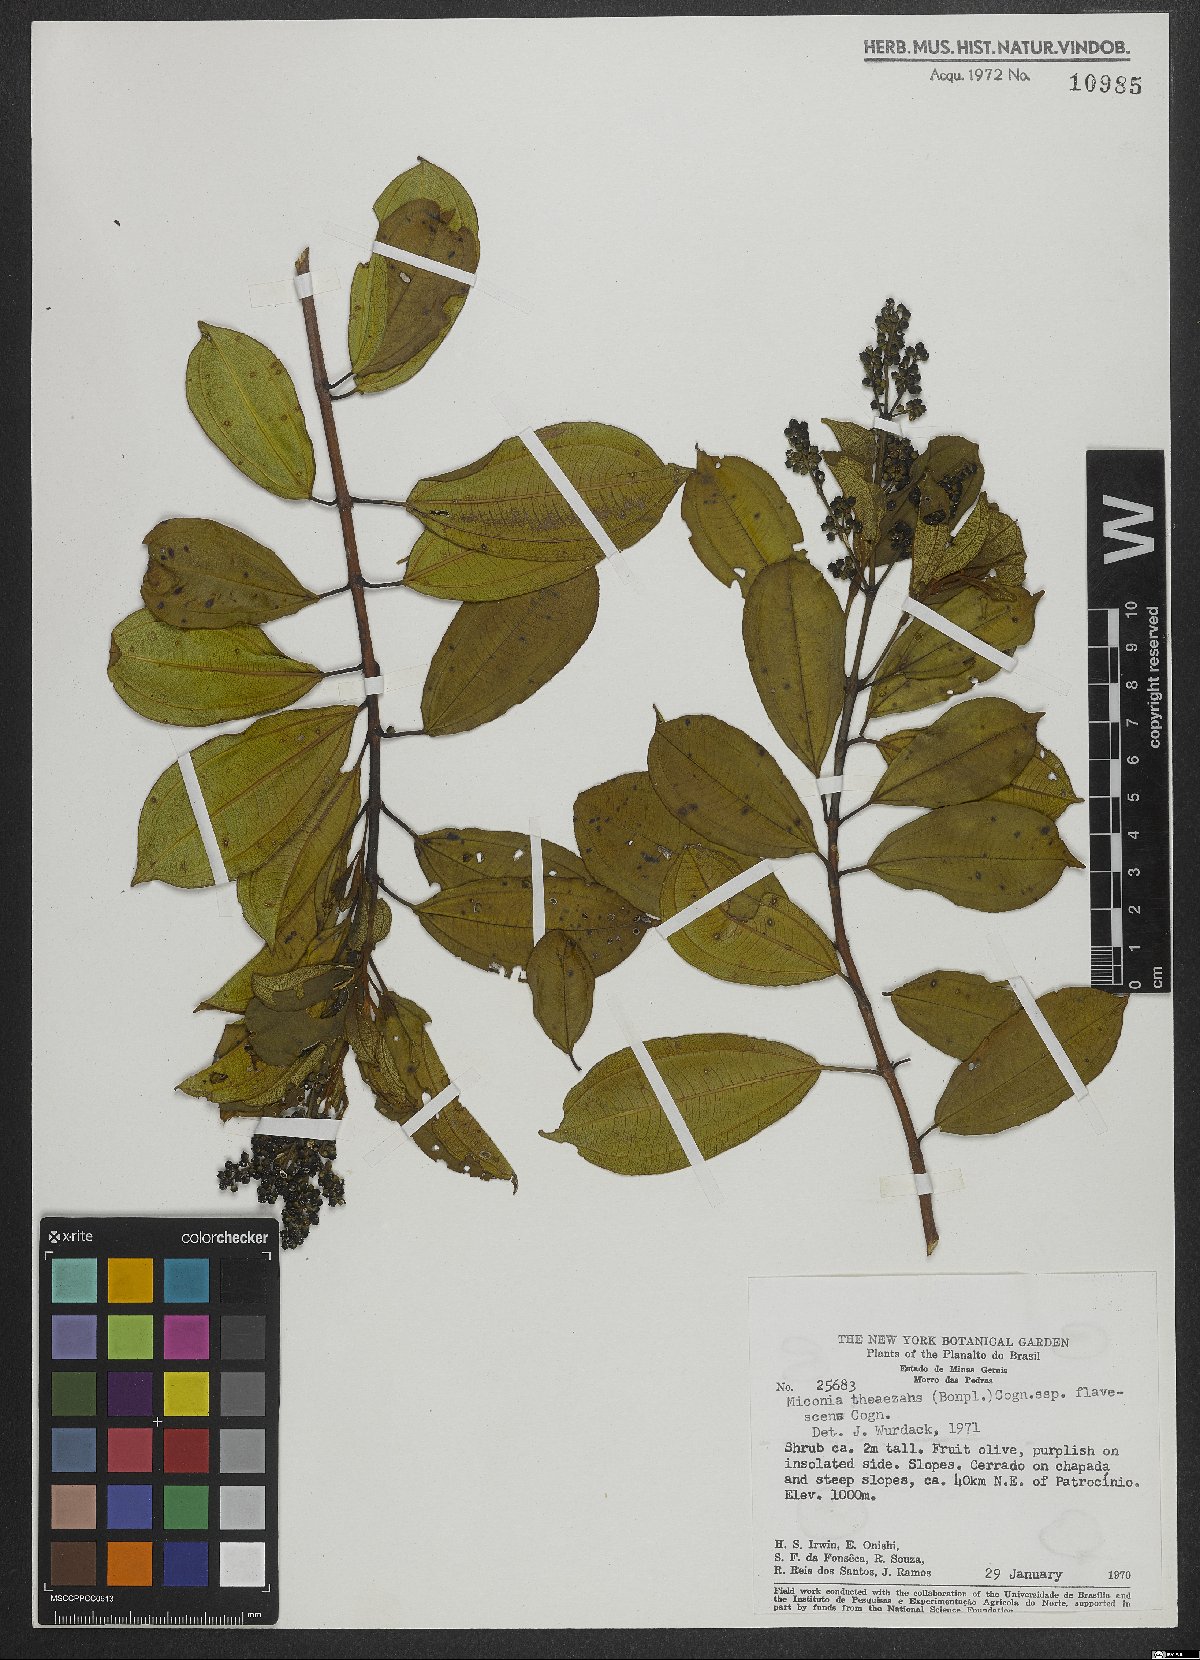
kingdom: Plantae
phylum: Tracheophyta
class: Magnoliopsida
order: Myrtales
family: Melastomataceae
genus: Miconia
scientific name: Miconia theizans
